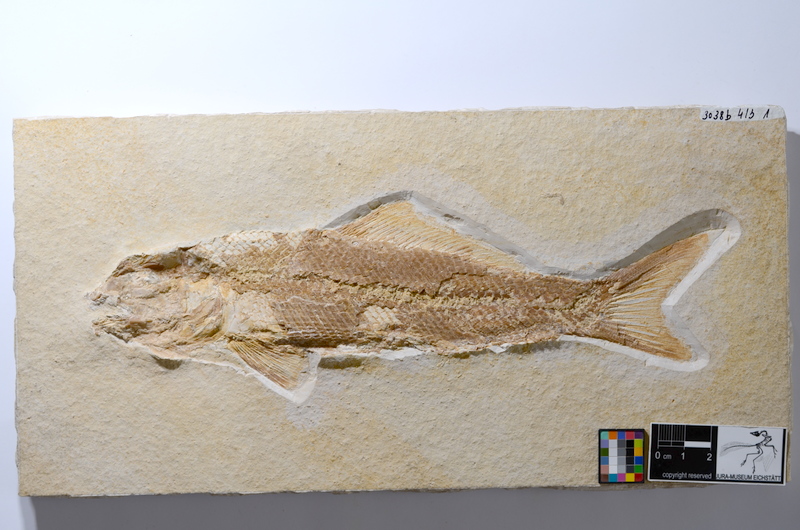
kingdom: Animalia
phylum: Chordata
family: Ophiopsiellidae
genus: Ophiopsiella
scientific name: Ophiopsiella attenuata
